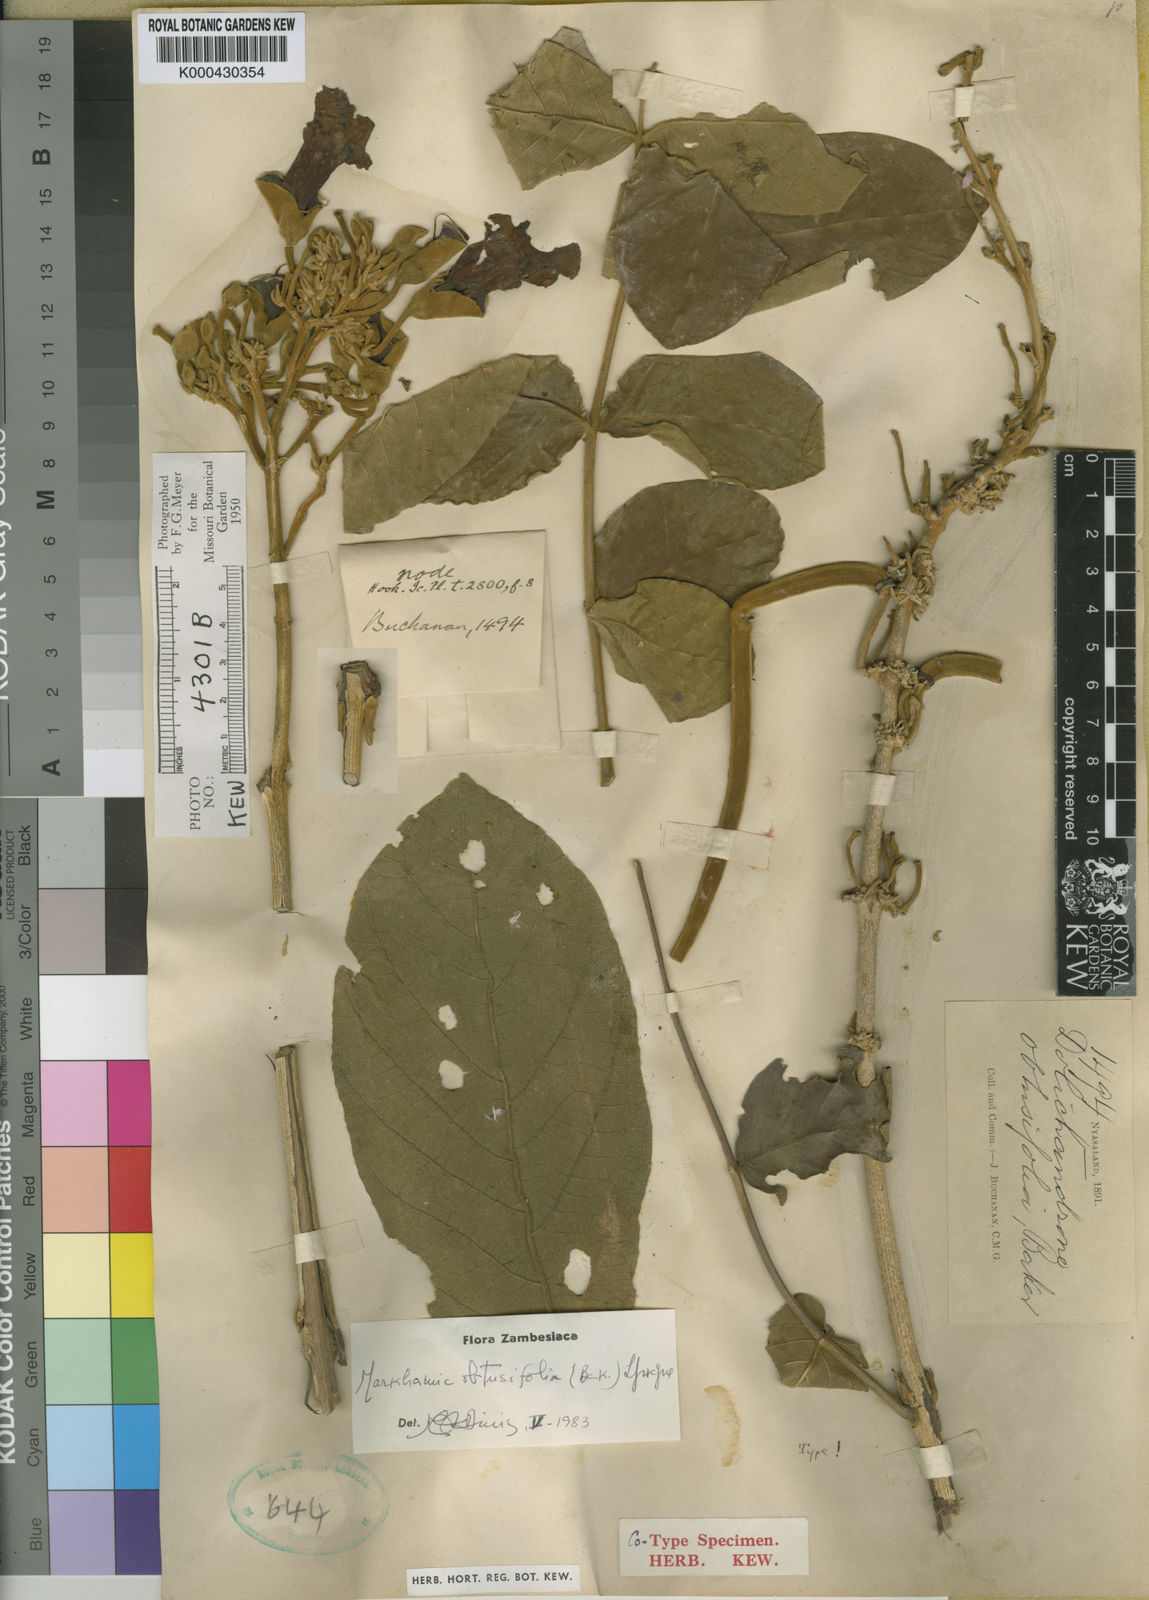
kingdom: Plantae
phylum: Tracheophyta
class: Magnoliopsida
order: Lamiales
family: Bignoniaceae
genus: Markhamia
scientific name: Markhamia obtusifolia
